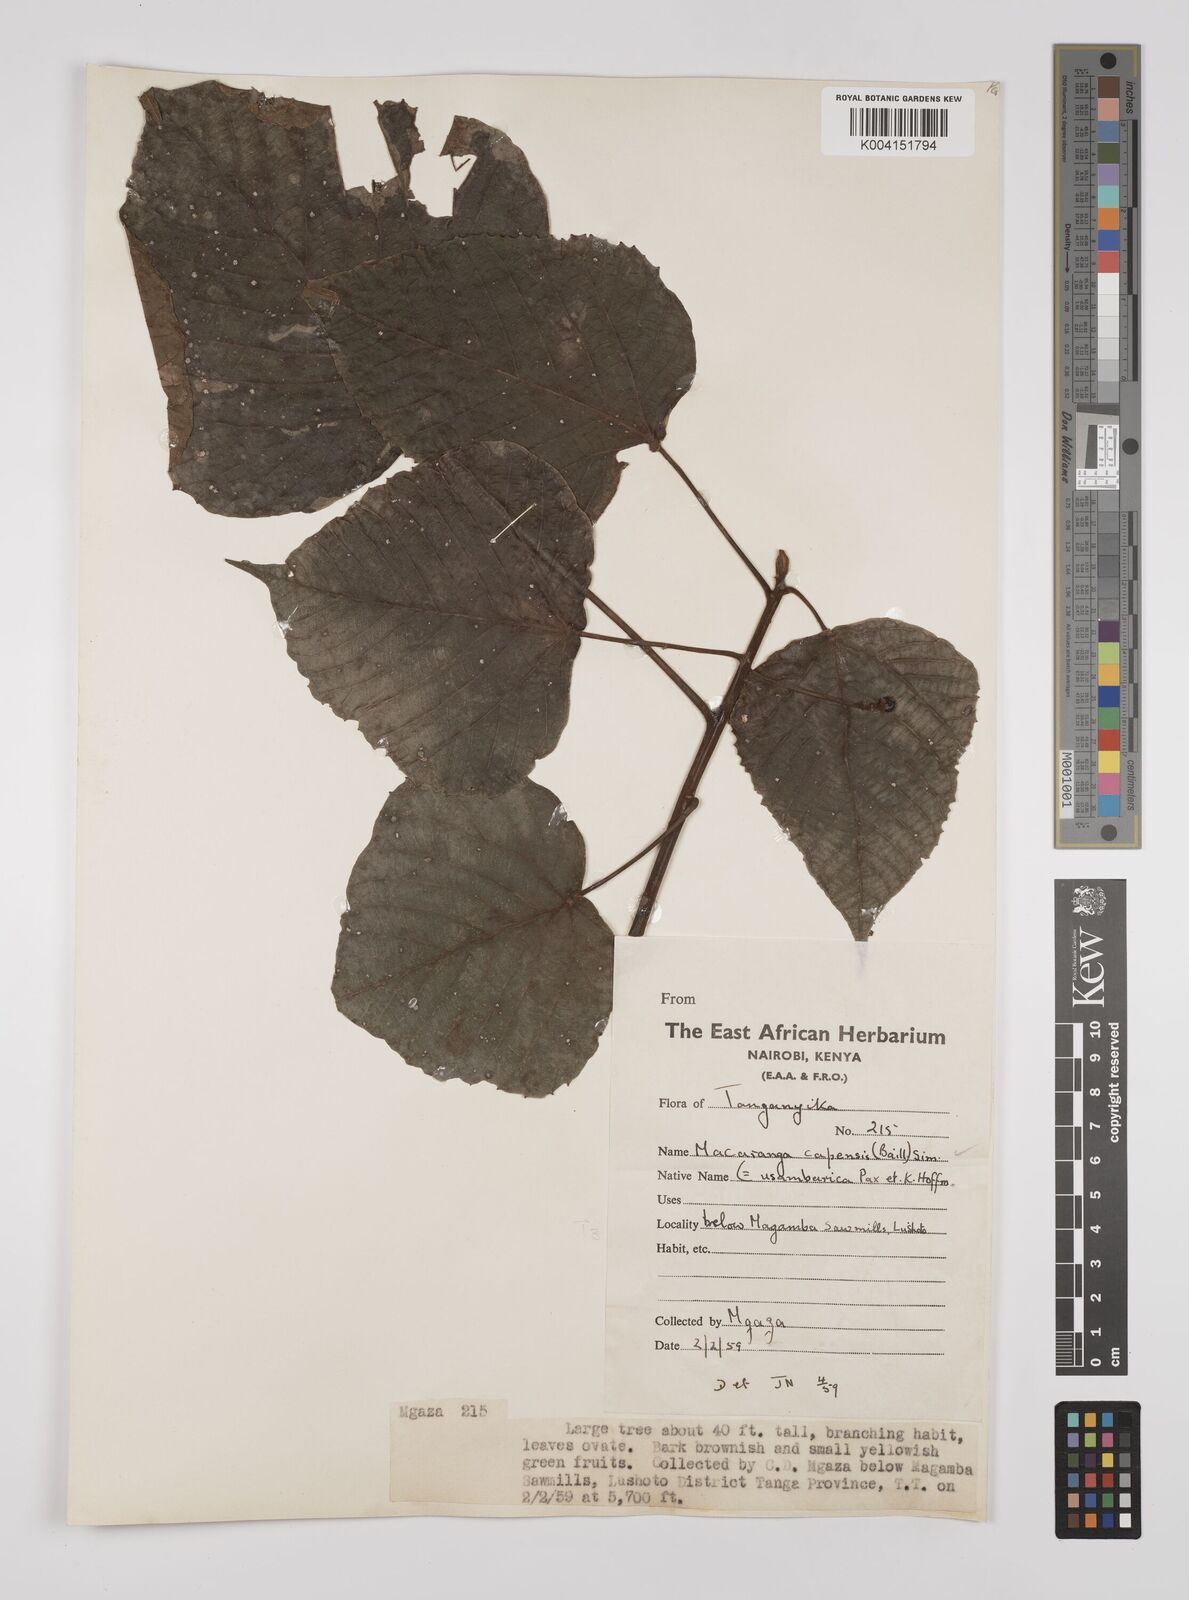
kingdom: Plantae
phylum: Tracheophyta
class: Magnoliopsida
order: Malpighiales
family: Euphorbiaceae
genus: Macaranga
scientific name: Macaranga capensis
